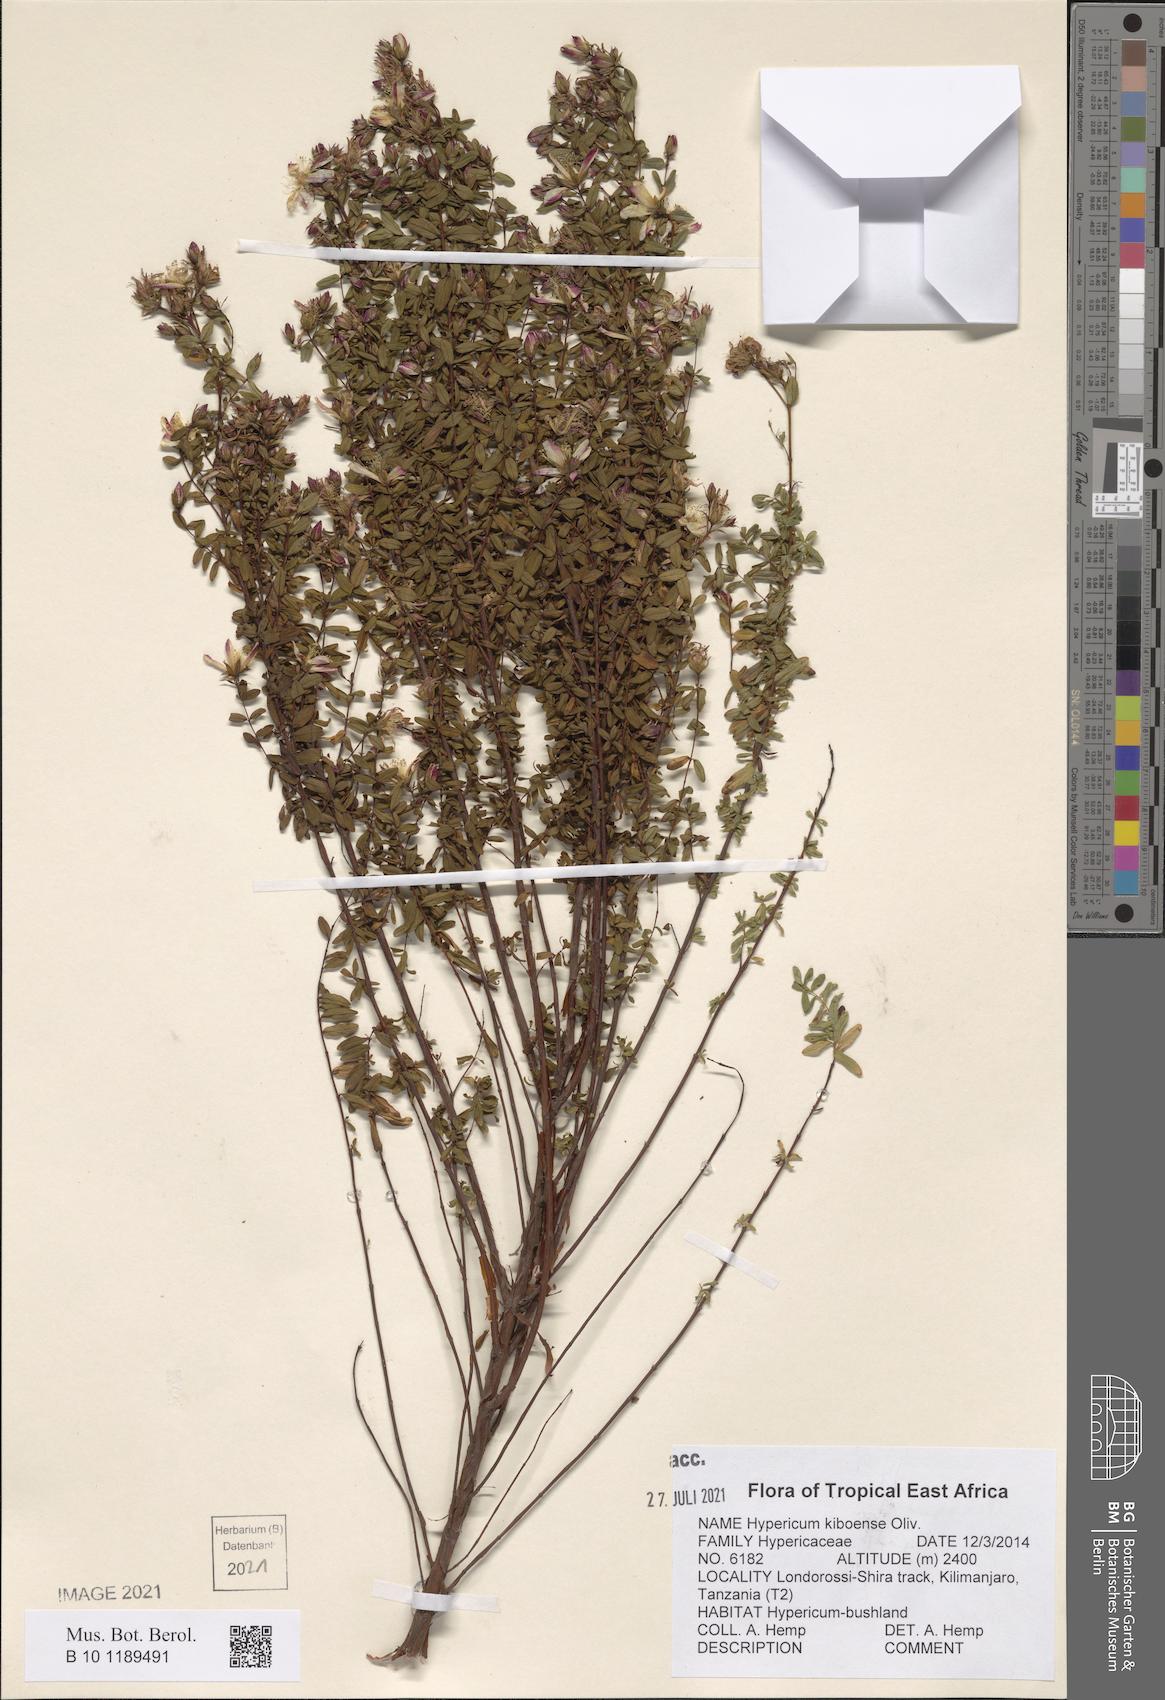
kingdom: Plantae
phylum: Tracheophyta
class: Magnoliopsida
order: Malpighiales
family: Hypericaceae
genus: Hypericum
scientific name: Hypericum kiboense
